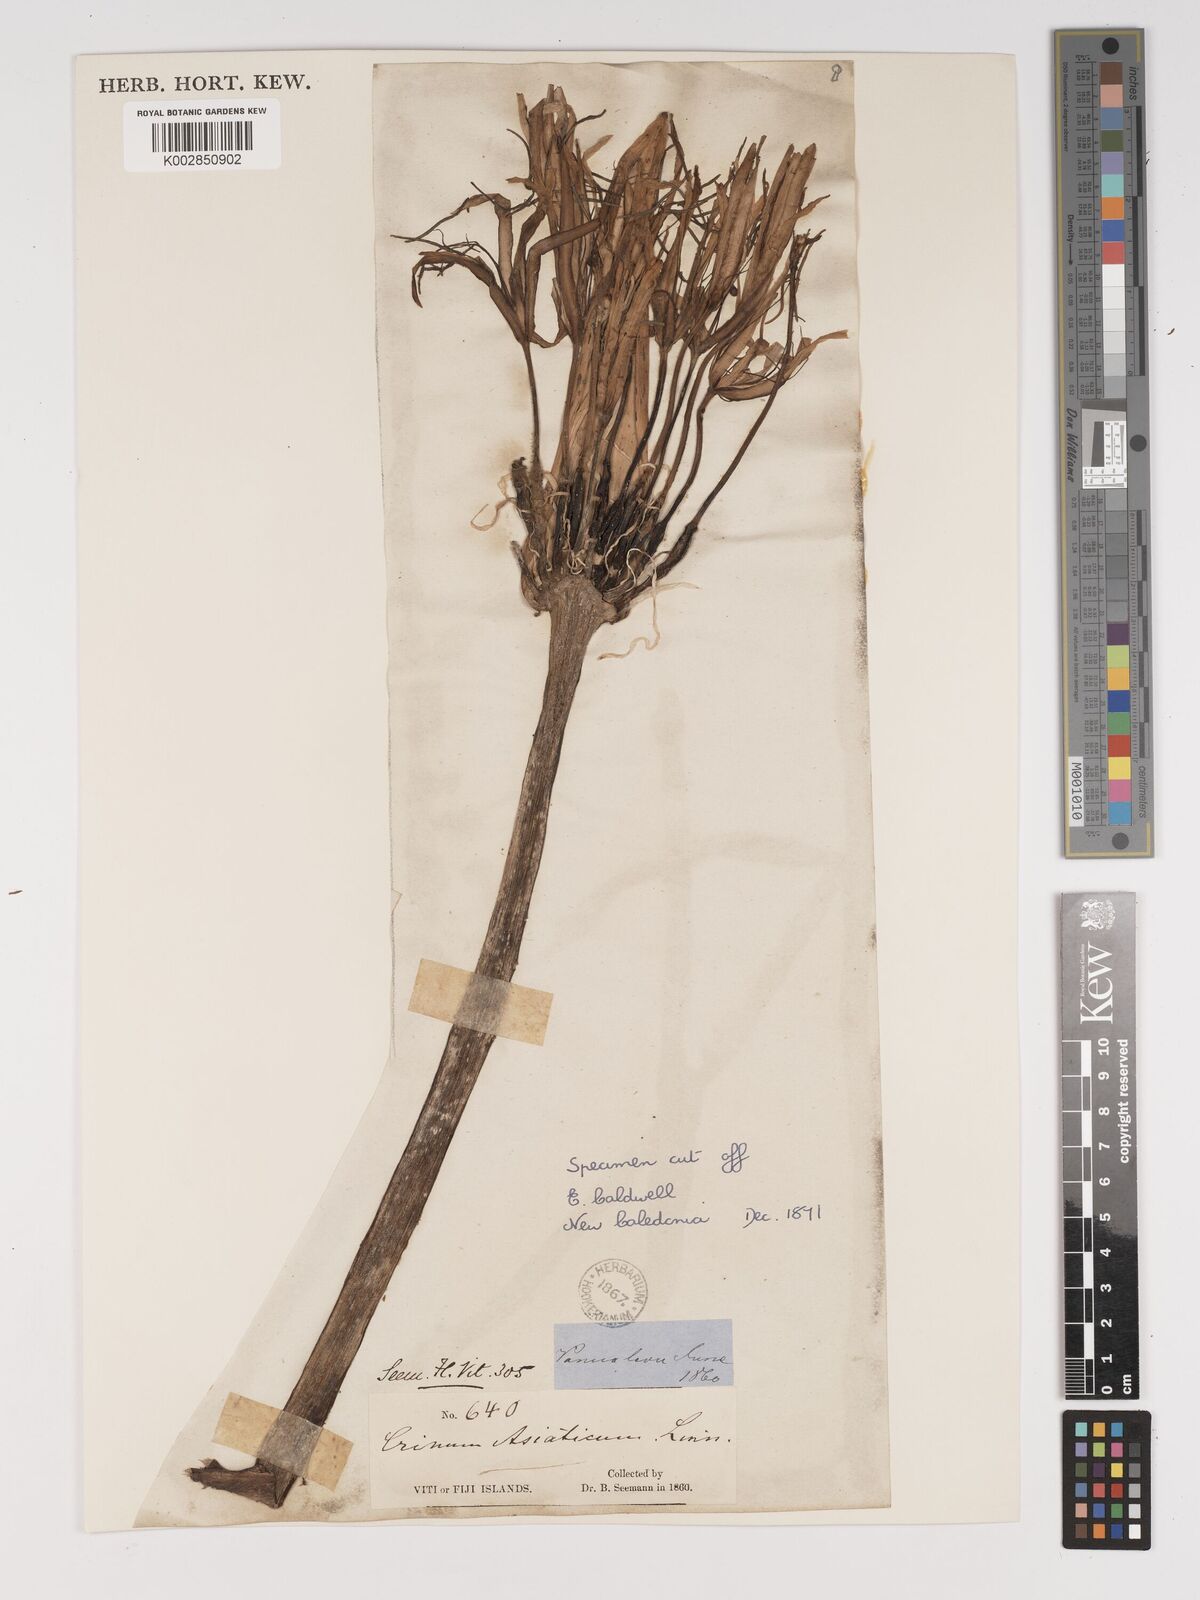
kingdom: Plantae
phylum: Tracheophyta
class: Liliopsida
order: Asparagales
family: Amaryllidaceae
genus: Crinum
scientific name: Crinum asiaticum
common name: Poisonbulb
